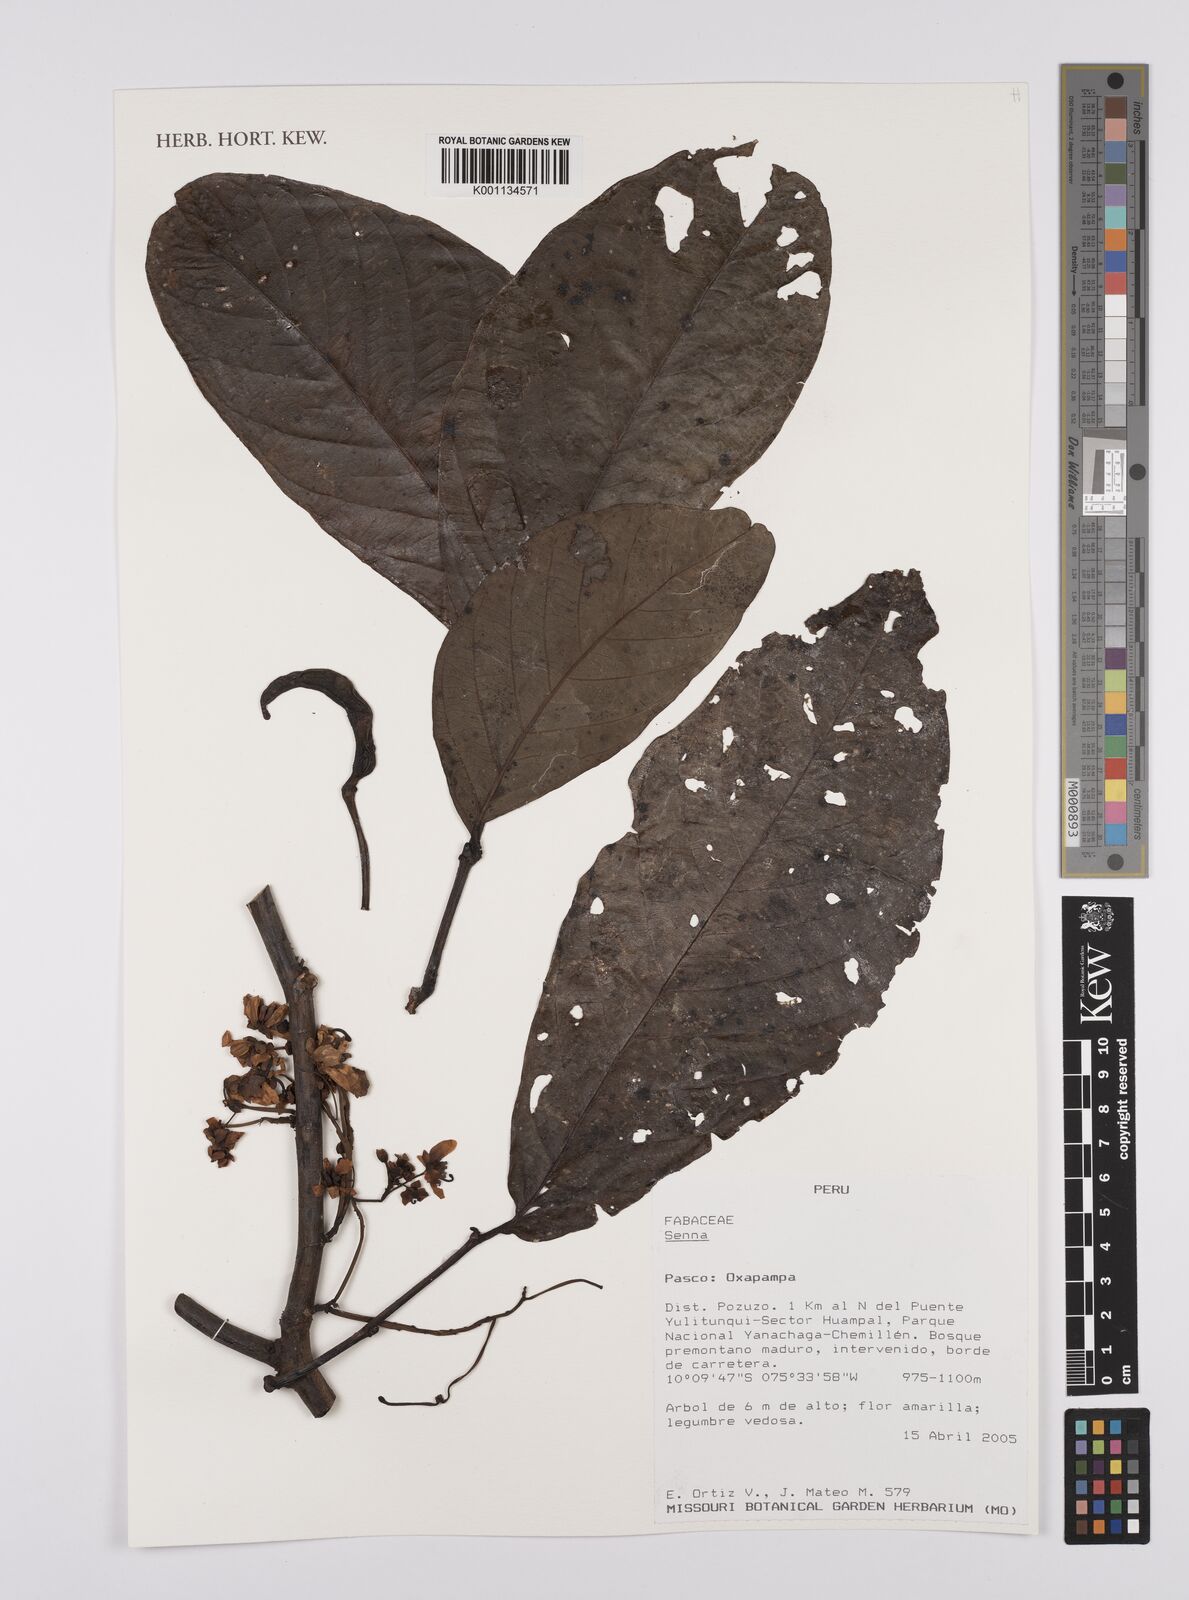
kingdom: Plantae
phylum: Tracheophyta
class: Magnoliopsida
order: Fabales
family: Fabaceae
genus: Senna
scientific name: Senna
